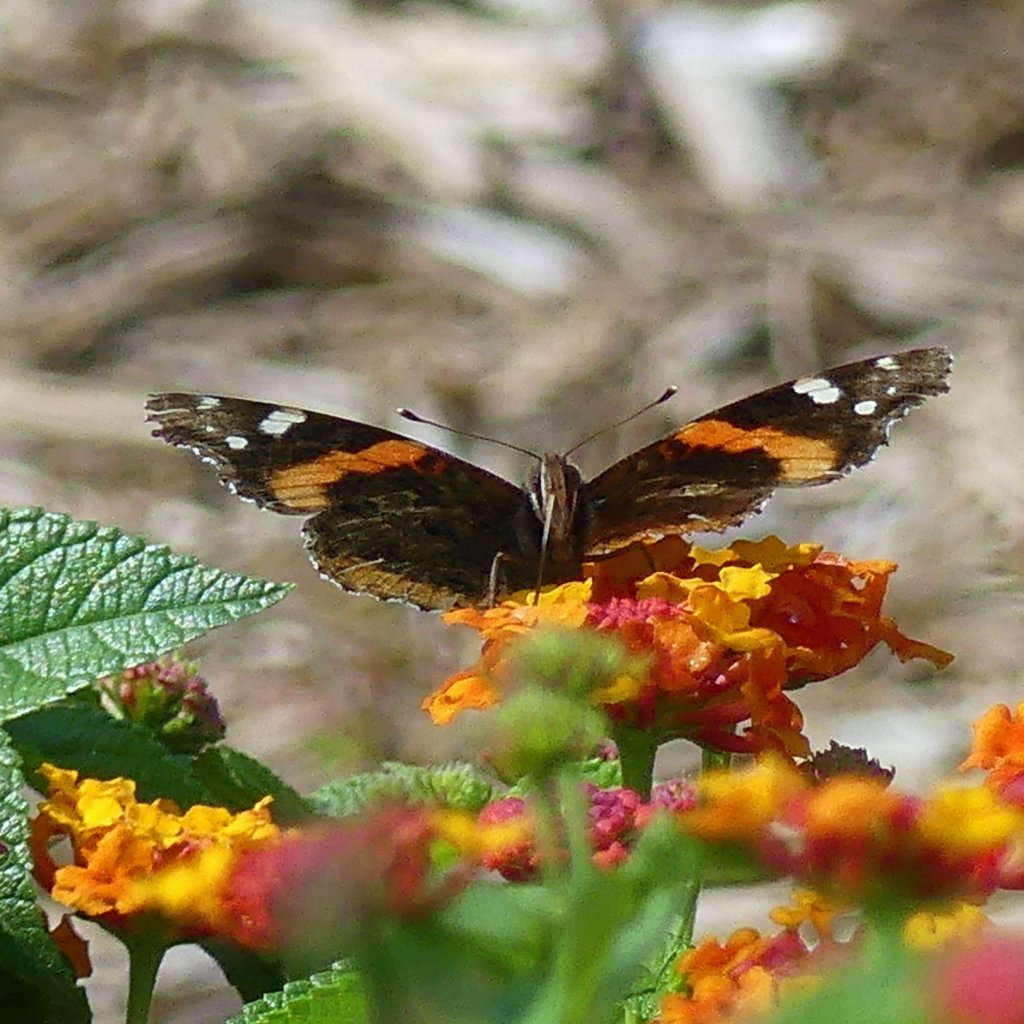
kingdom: Animalia
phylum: Arthropoda
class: Insecta
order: Lepidoptera
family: Nymphalidae
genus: Vanessa
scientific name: Vanessa atalanta
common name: Red Admiral
